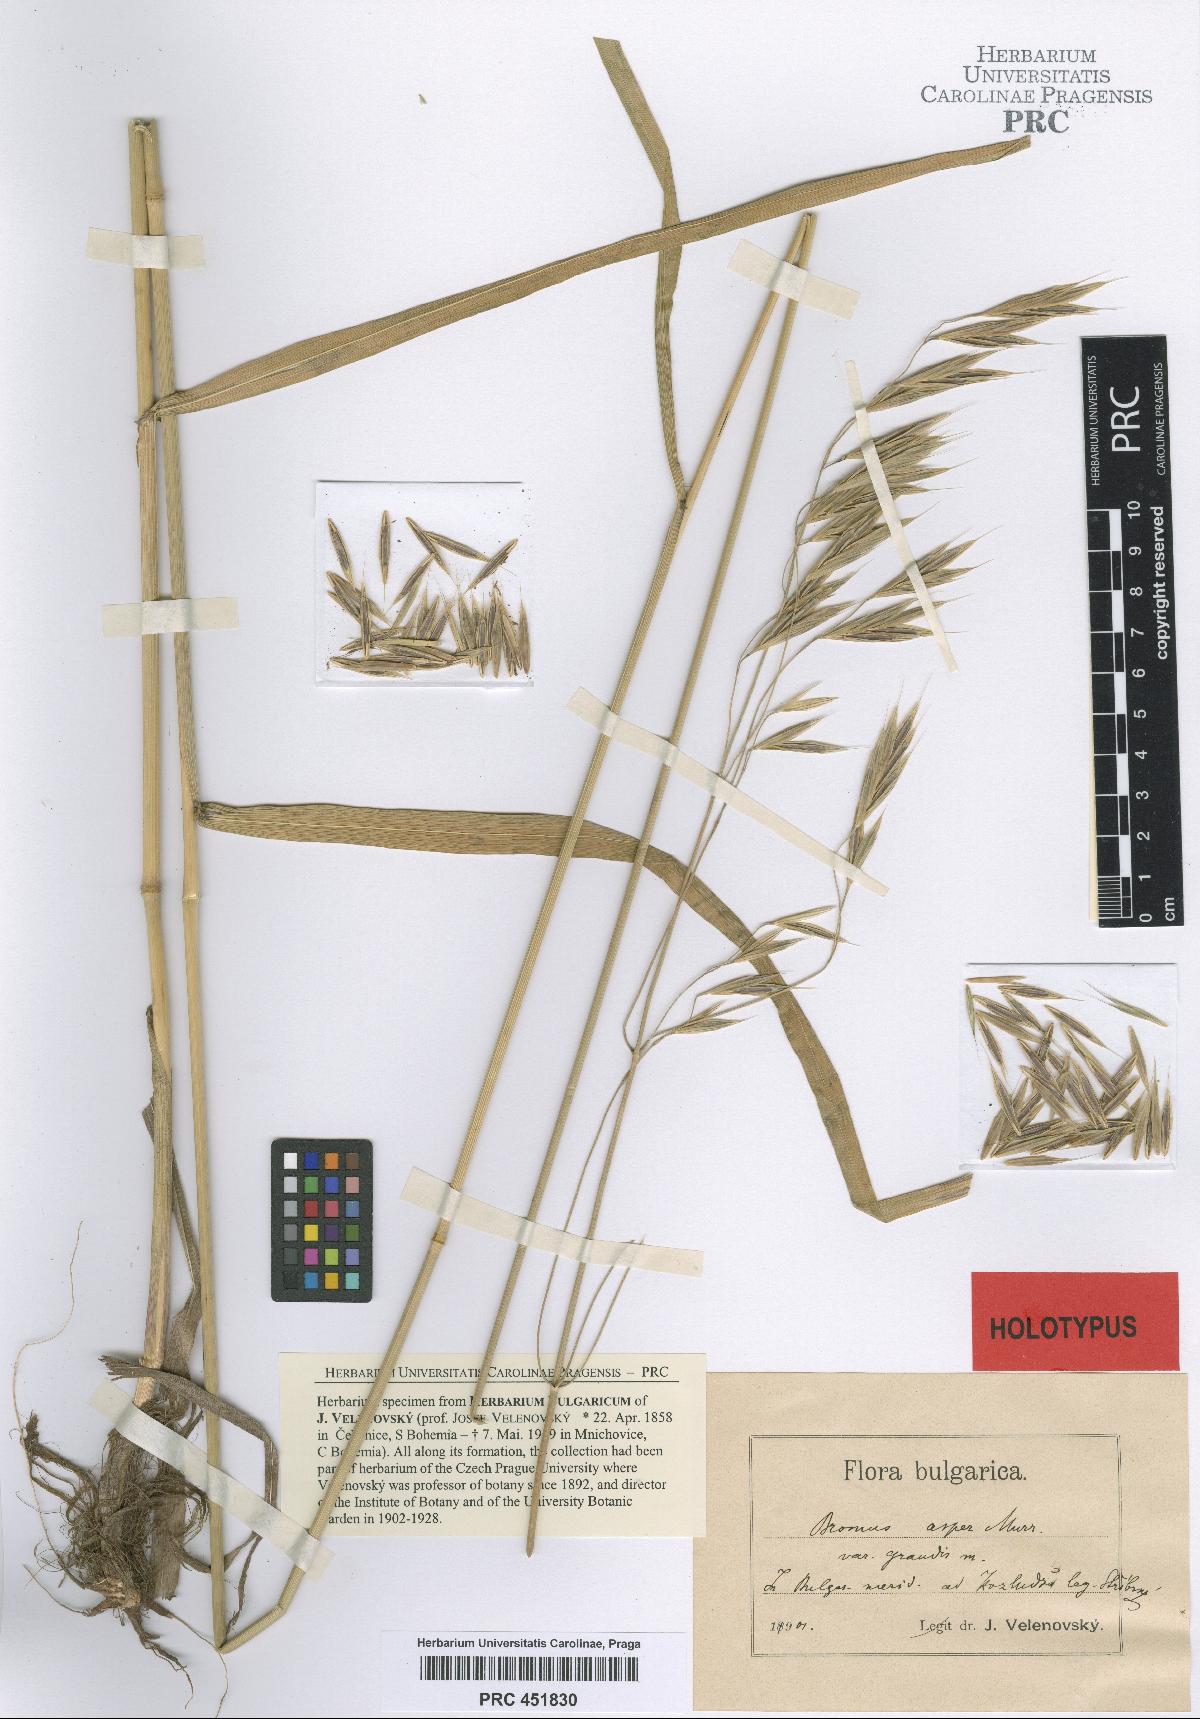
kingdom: Plantae
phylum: Tracheophyta
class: Liliopsida
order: Poales
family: Poaceae
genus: Bromus
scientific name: Bromus benekenii
